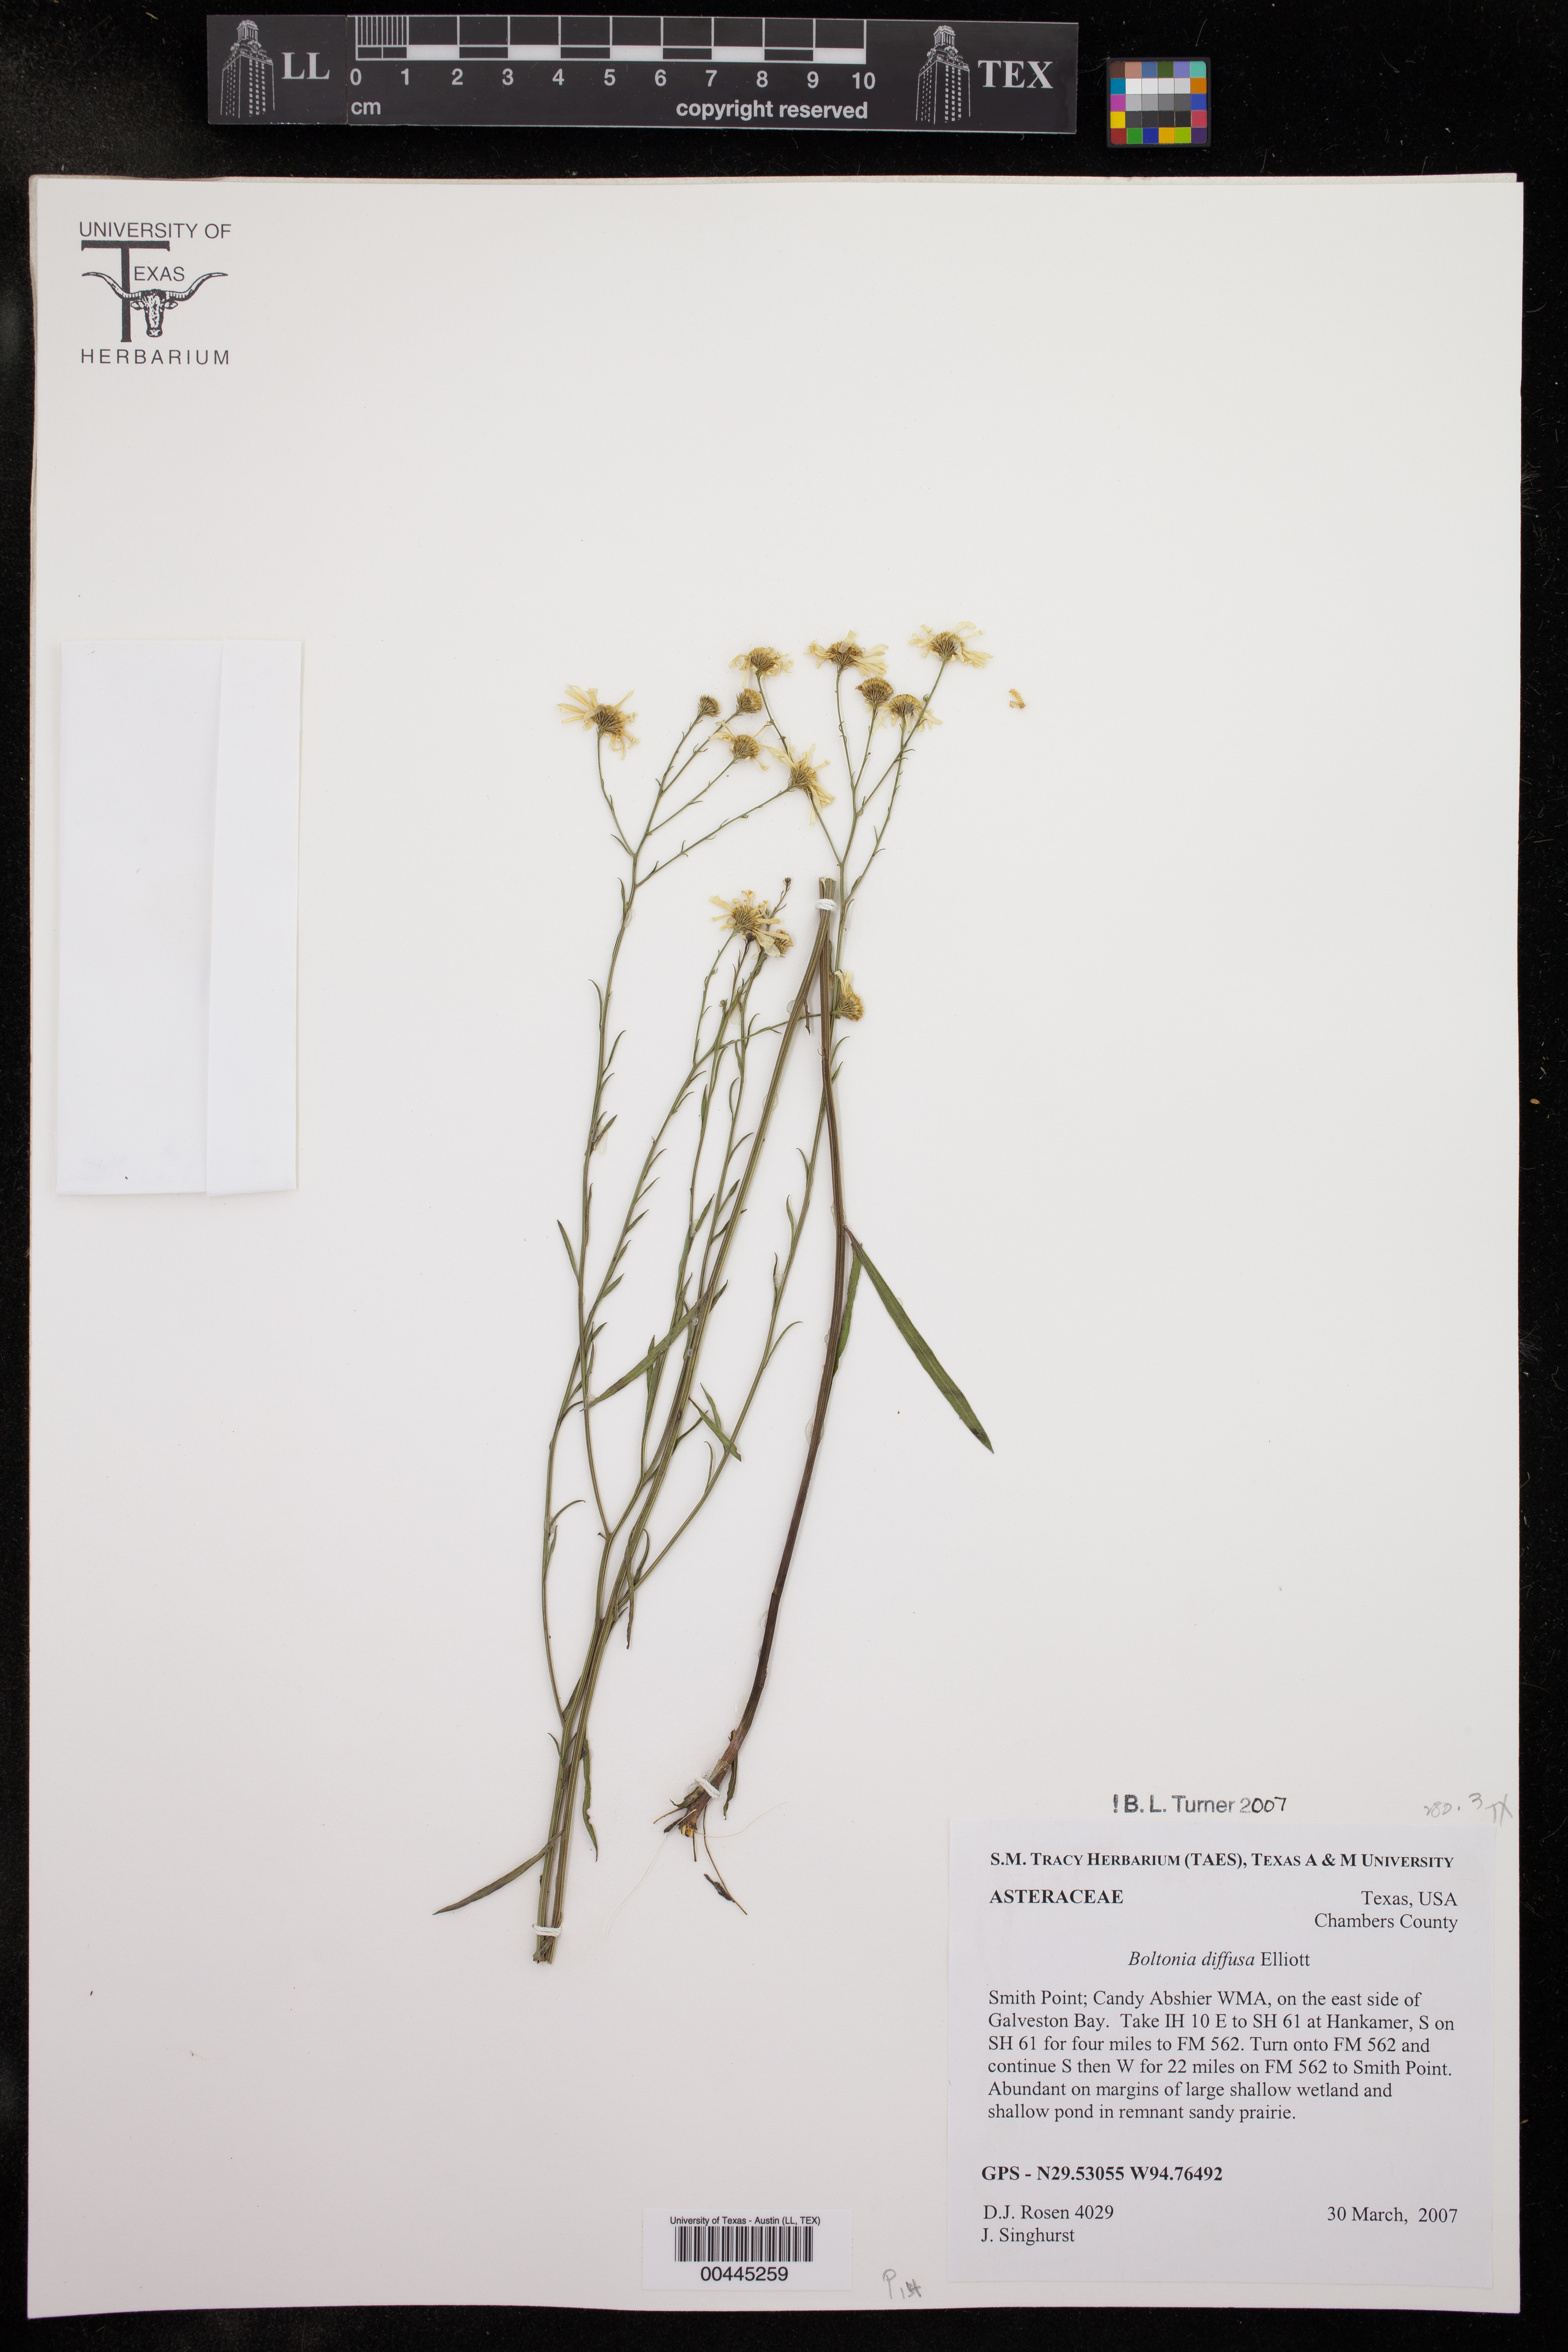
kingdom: Plantae
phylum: Tracheophyta
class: Magnoliopsida
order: Asterales
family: Asteraceae
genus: Boltonia
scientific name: Boltonia diffusa
